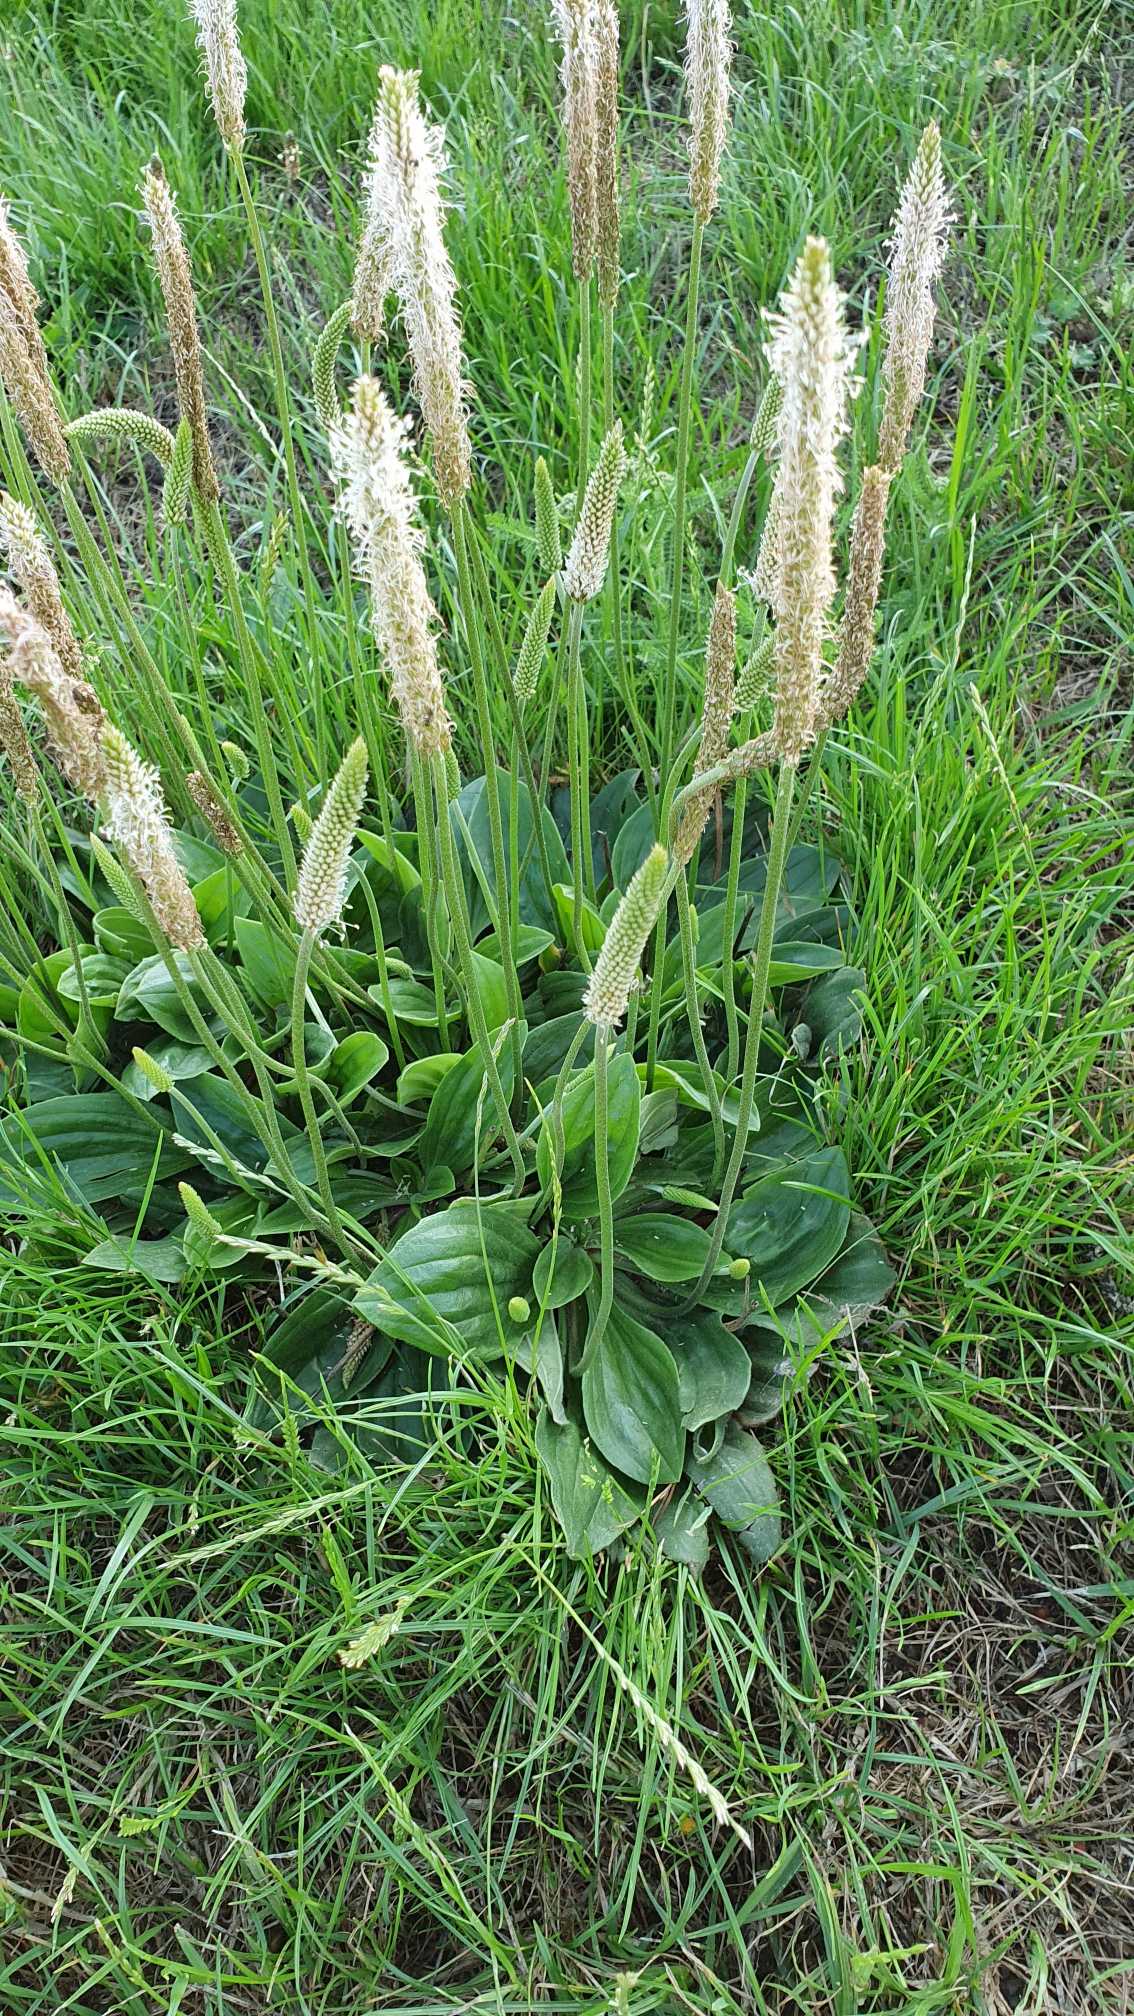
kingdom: Plantae
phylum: Tracheophyta
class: Magnoliopsida
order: Lamiales
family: Plantaginaceae
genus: Plantago
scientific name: Plantago media
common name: Dunet vejbred
